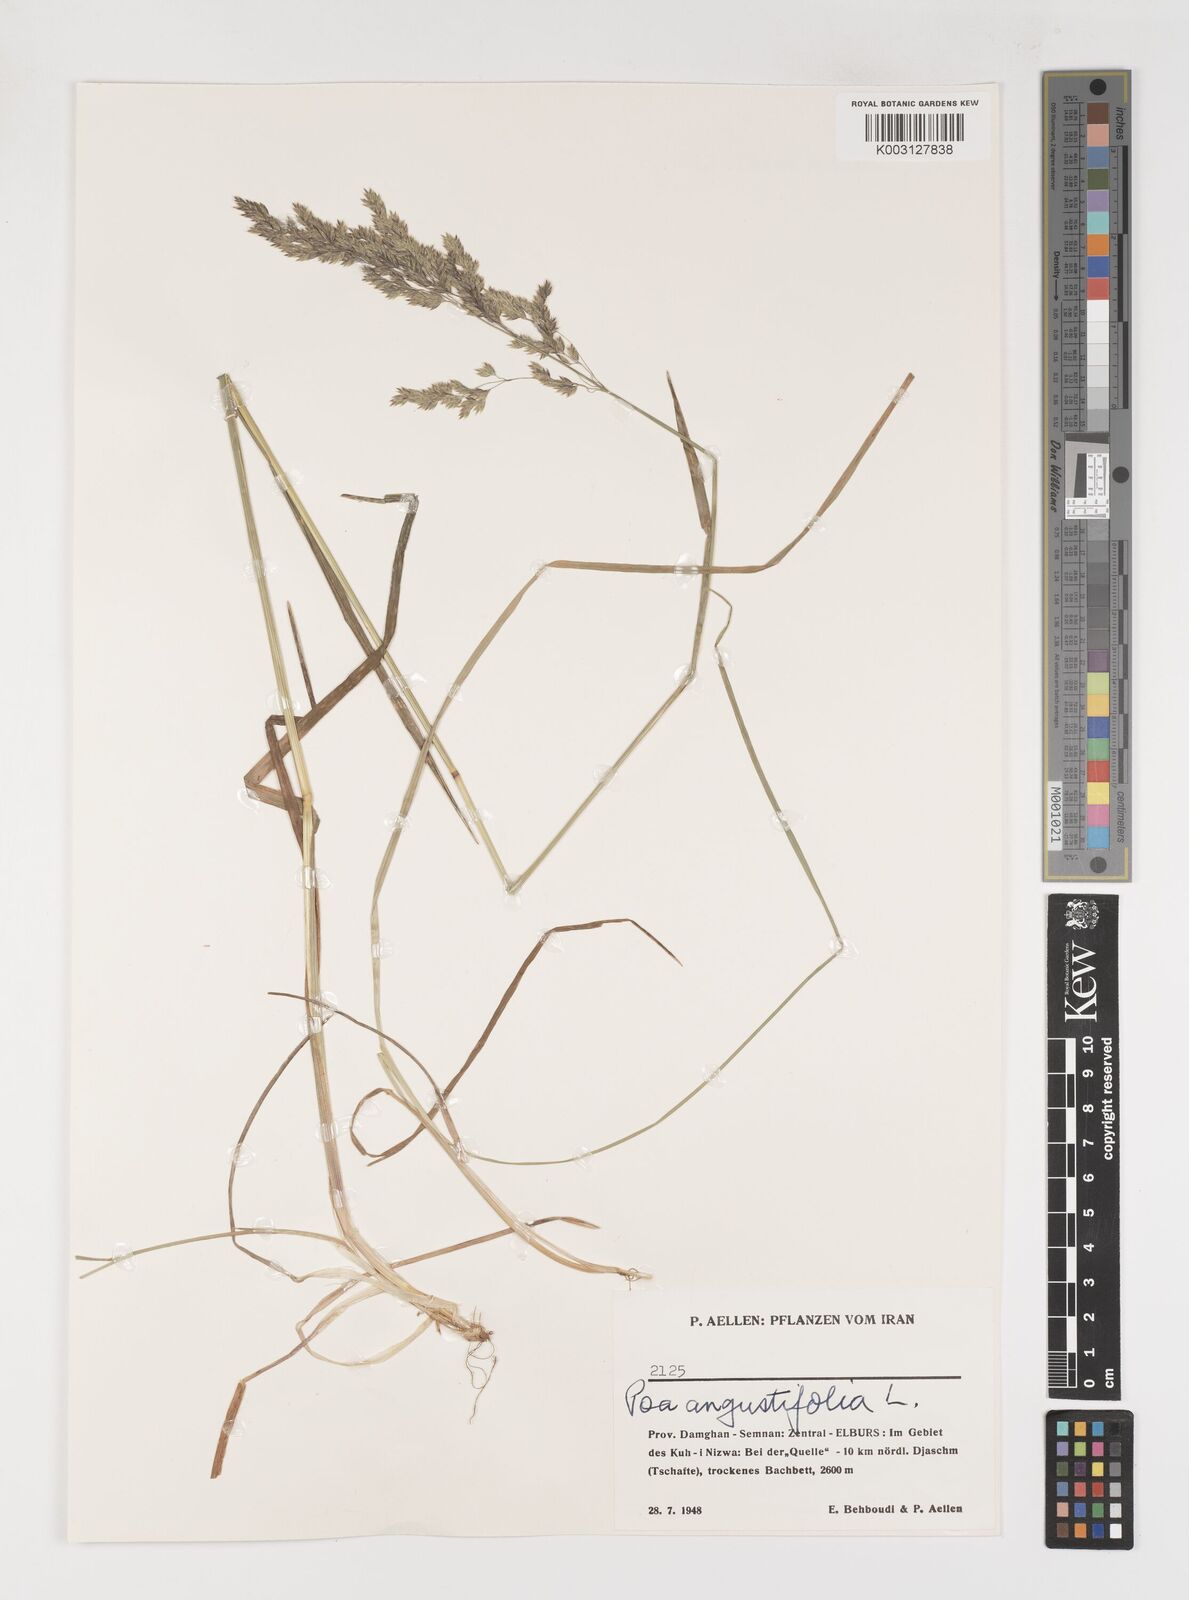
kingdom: Plantae
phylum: Tracheophyta
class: Liliopsida
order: Poales
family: Poaceae
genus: Poa
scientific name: Poa angustifolia
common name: Narrow-leaved meadow-grass
